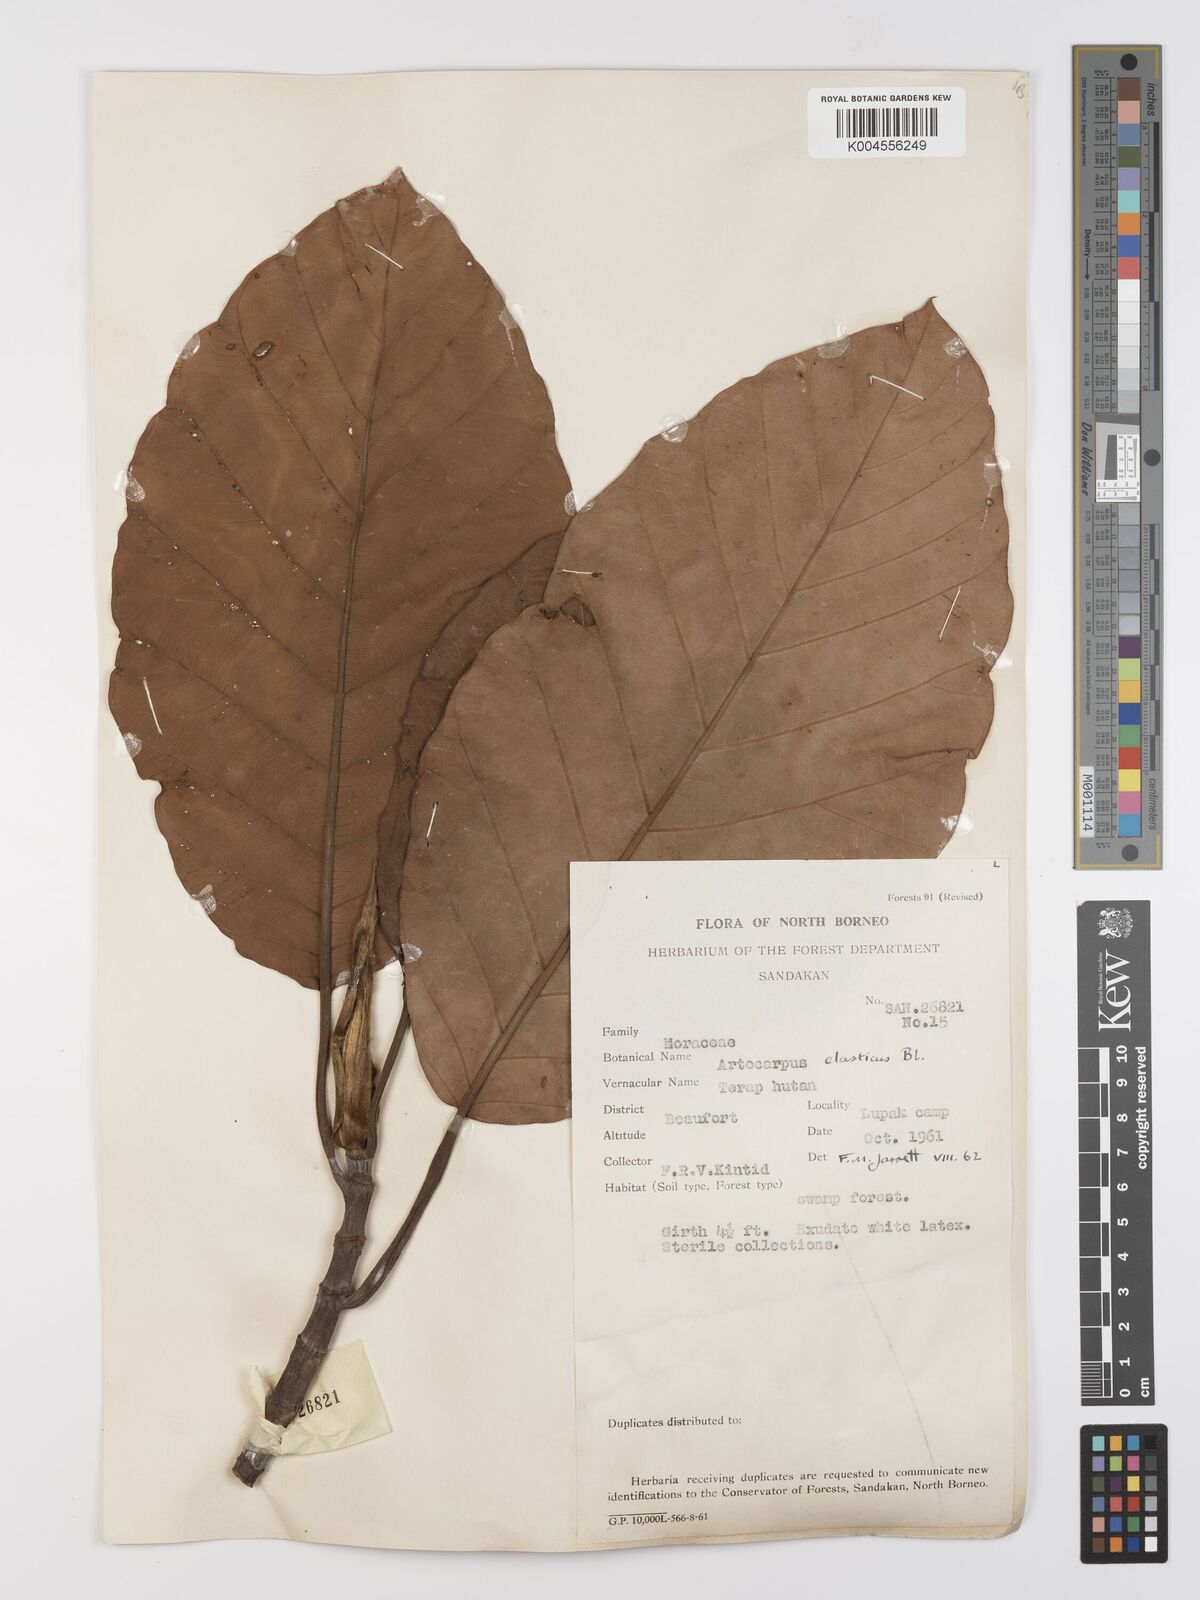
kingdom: Plantae
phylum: Tracheophyta
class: Magnoliopsida
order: Rosales
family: Moraceae
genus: Artocarpus
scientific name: Artocarpus elasticus
